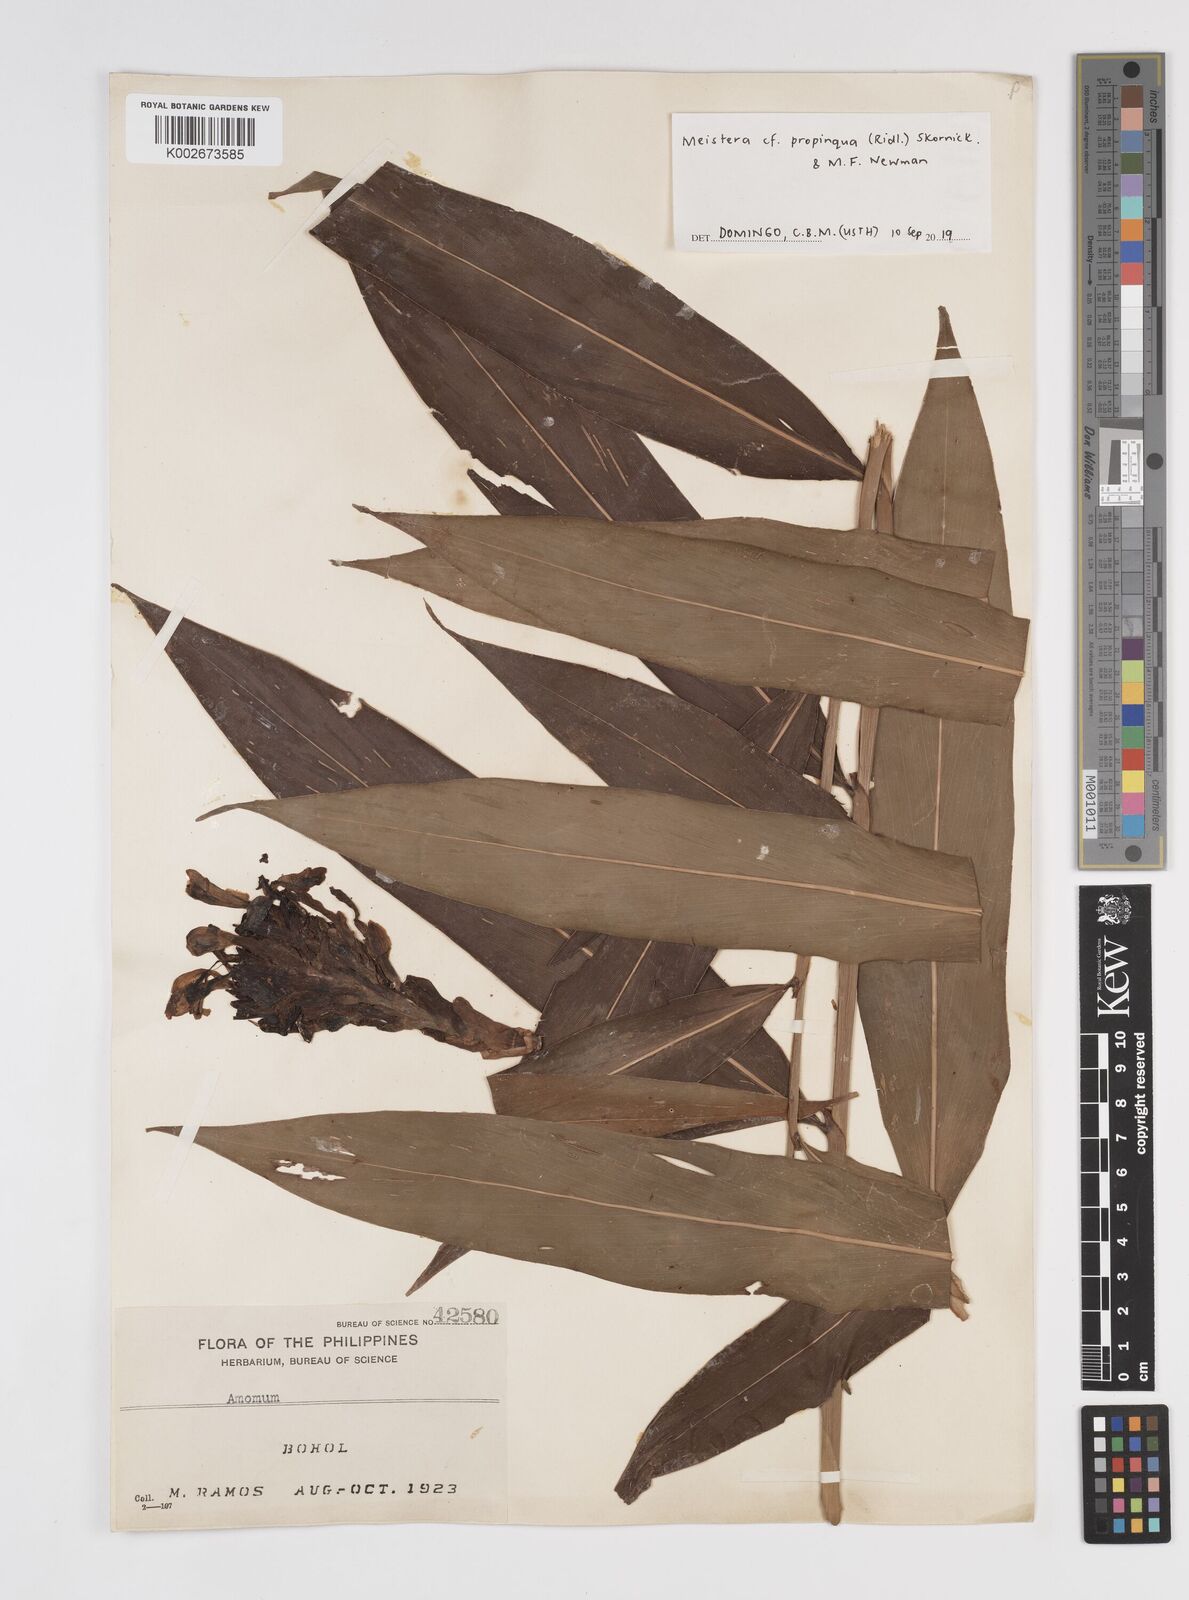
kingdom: Plantae
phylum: Tracheophyta
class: Liliopsida
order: Zingiberales
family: Zingiberaceae
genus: Meistera
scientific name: Meistera propinqua
